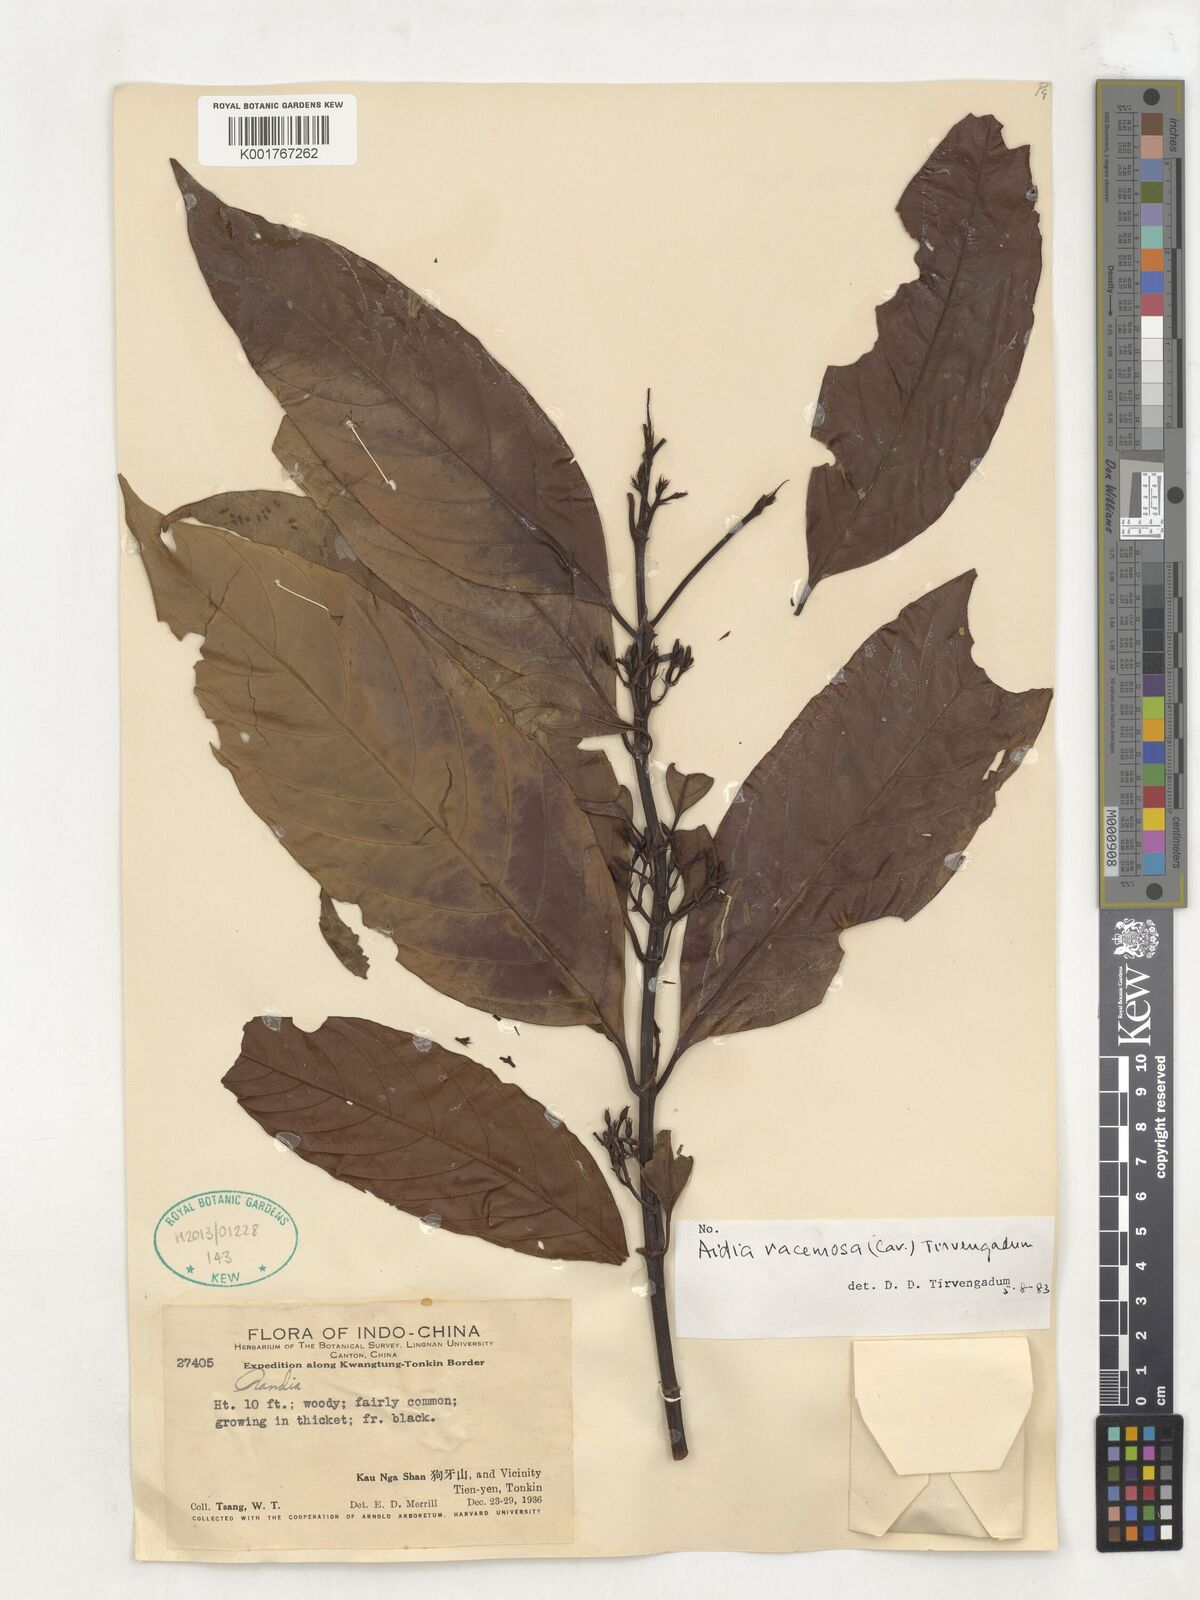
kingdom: Plantae
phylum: Tracheophyta
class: Magnoliopsida
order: Gentianales
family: Rubiaceae
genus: Aidia
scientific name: Aidia racemosa
